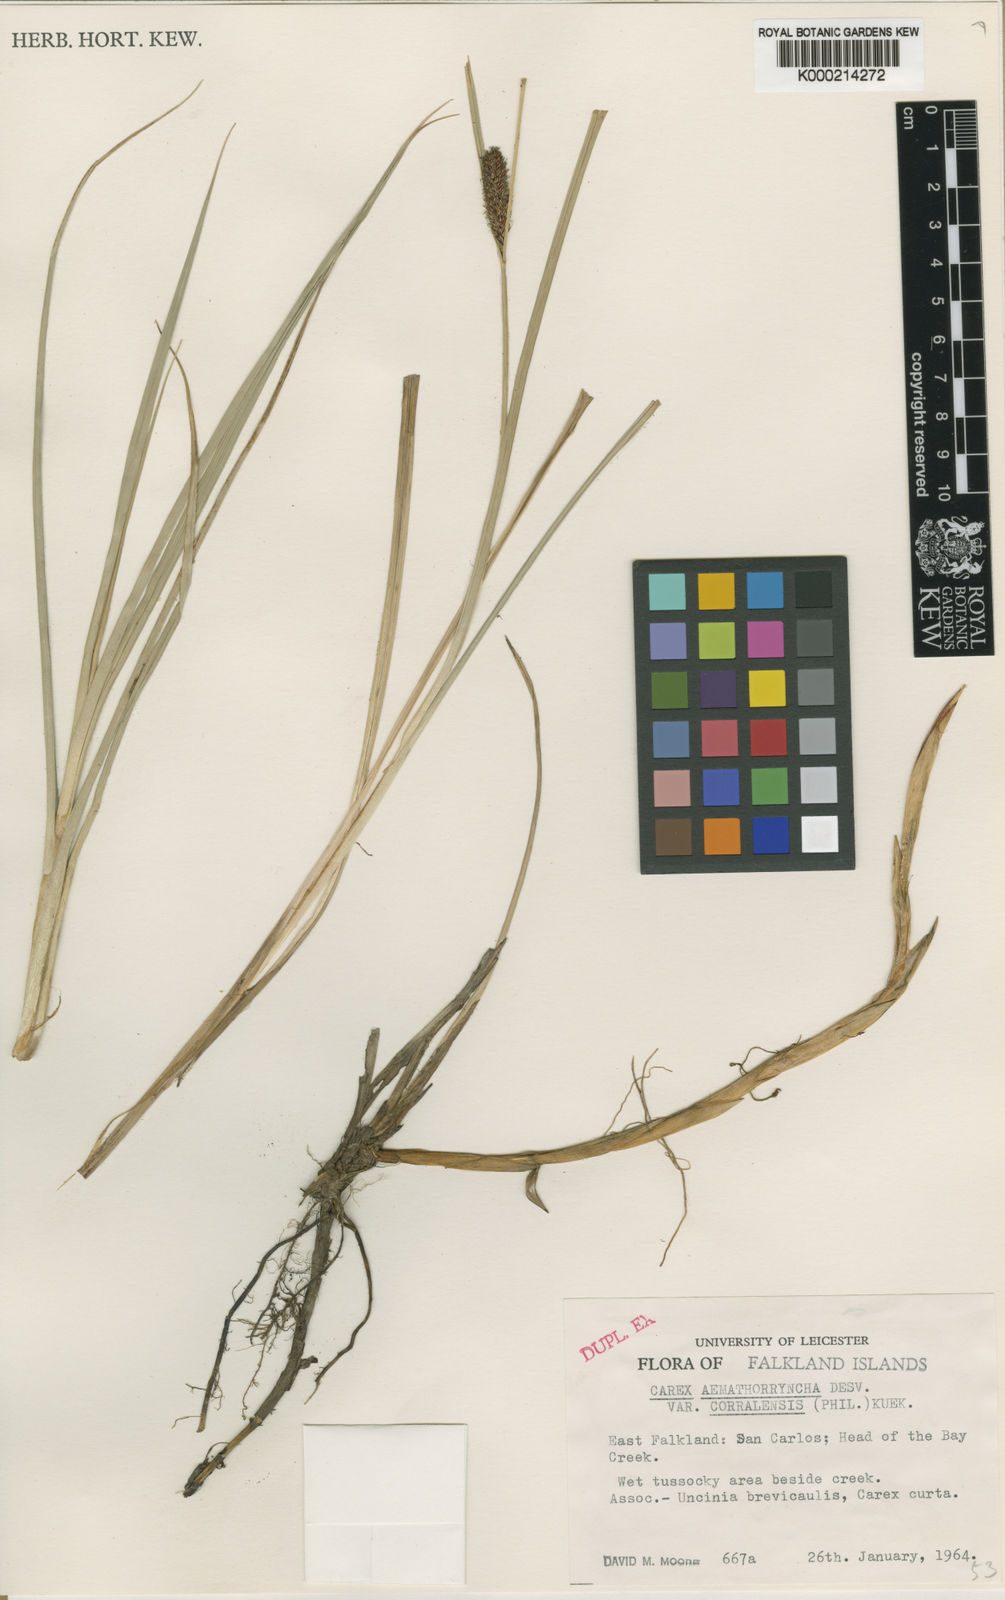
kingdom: Plantae
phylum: Tracheophyta
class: Liliopsida
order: Poales
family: Cyperaceae
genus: Carex
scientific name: Carex aematorhyncha
